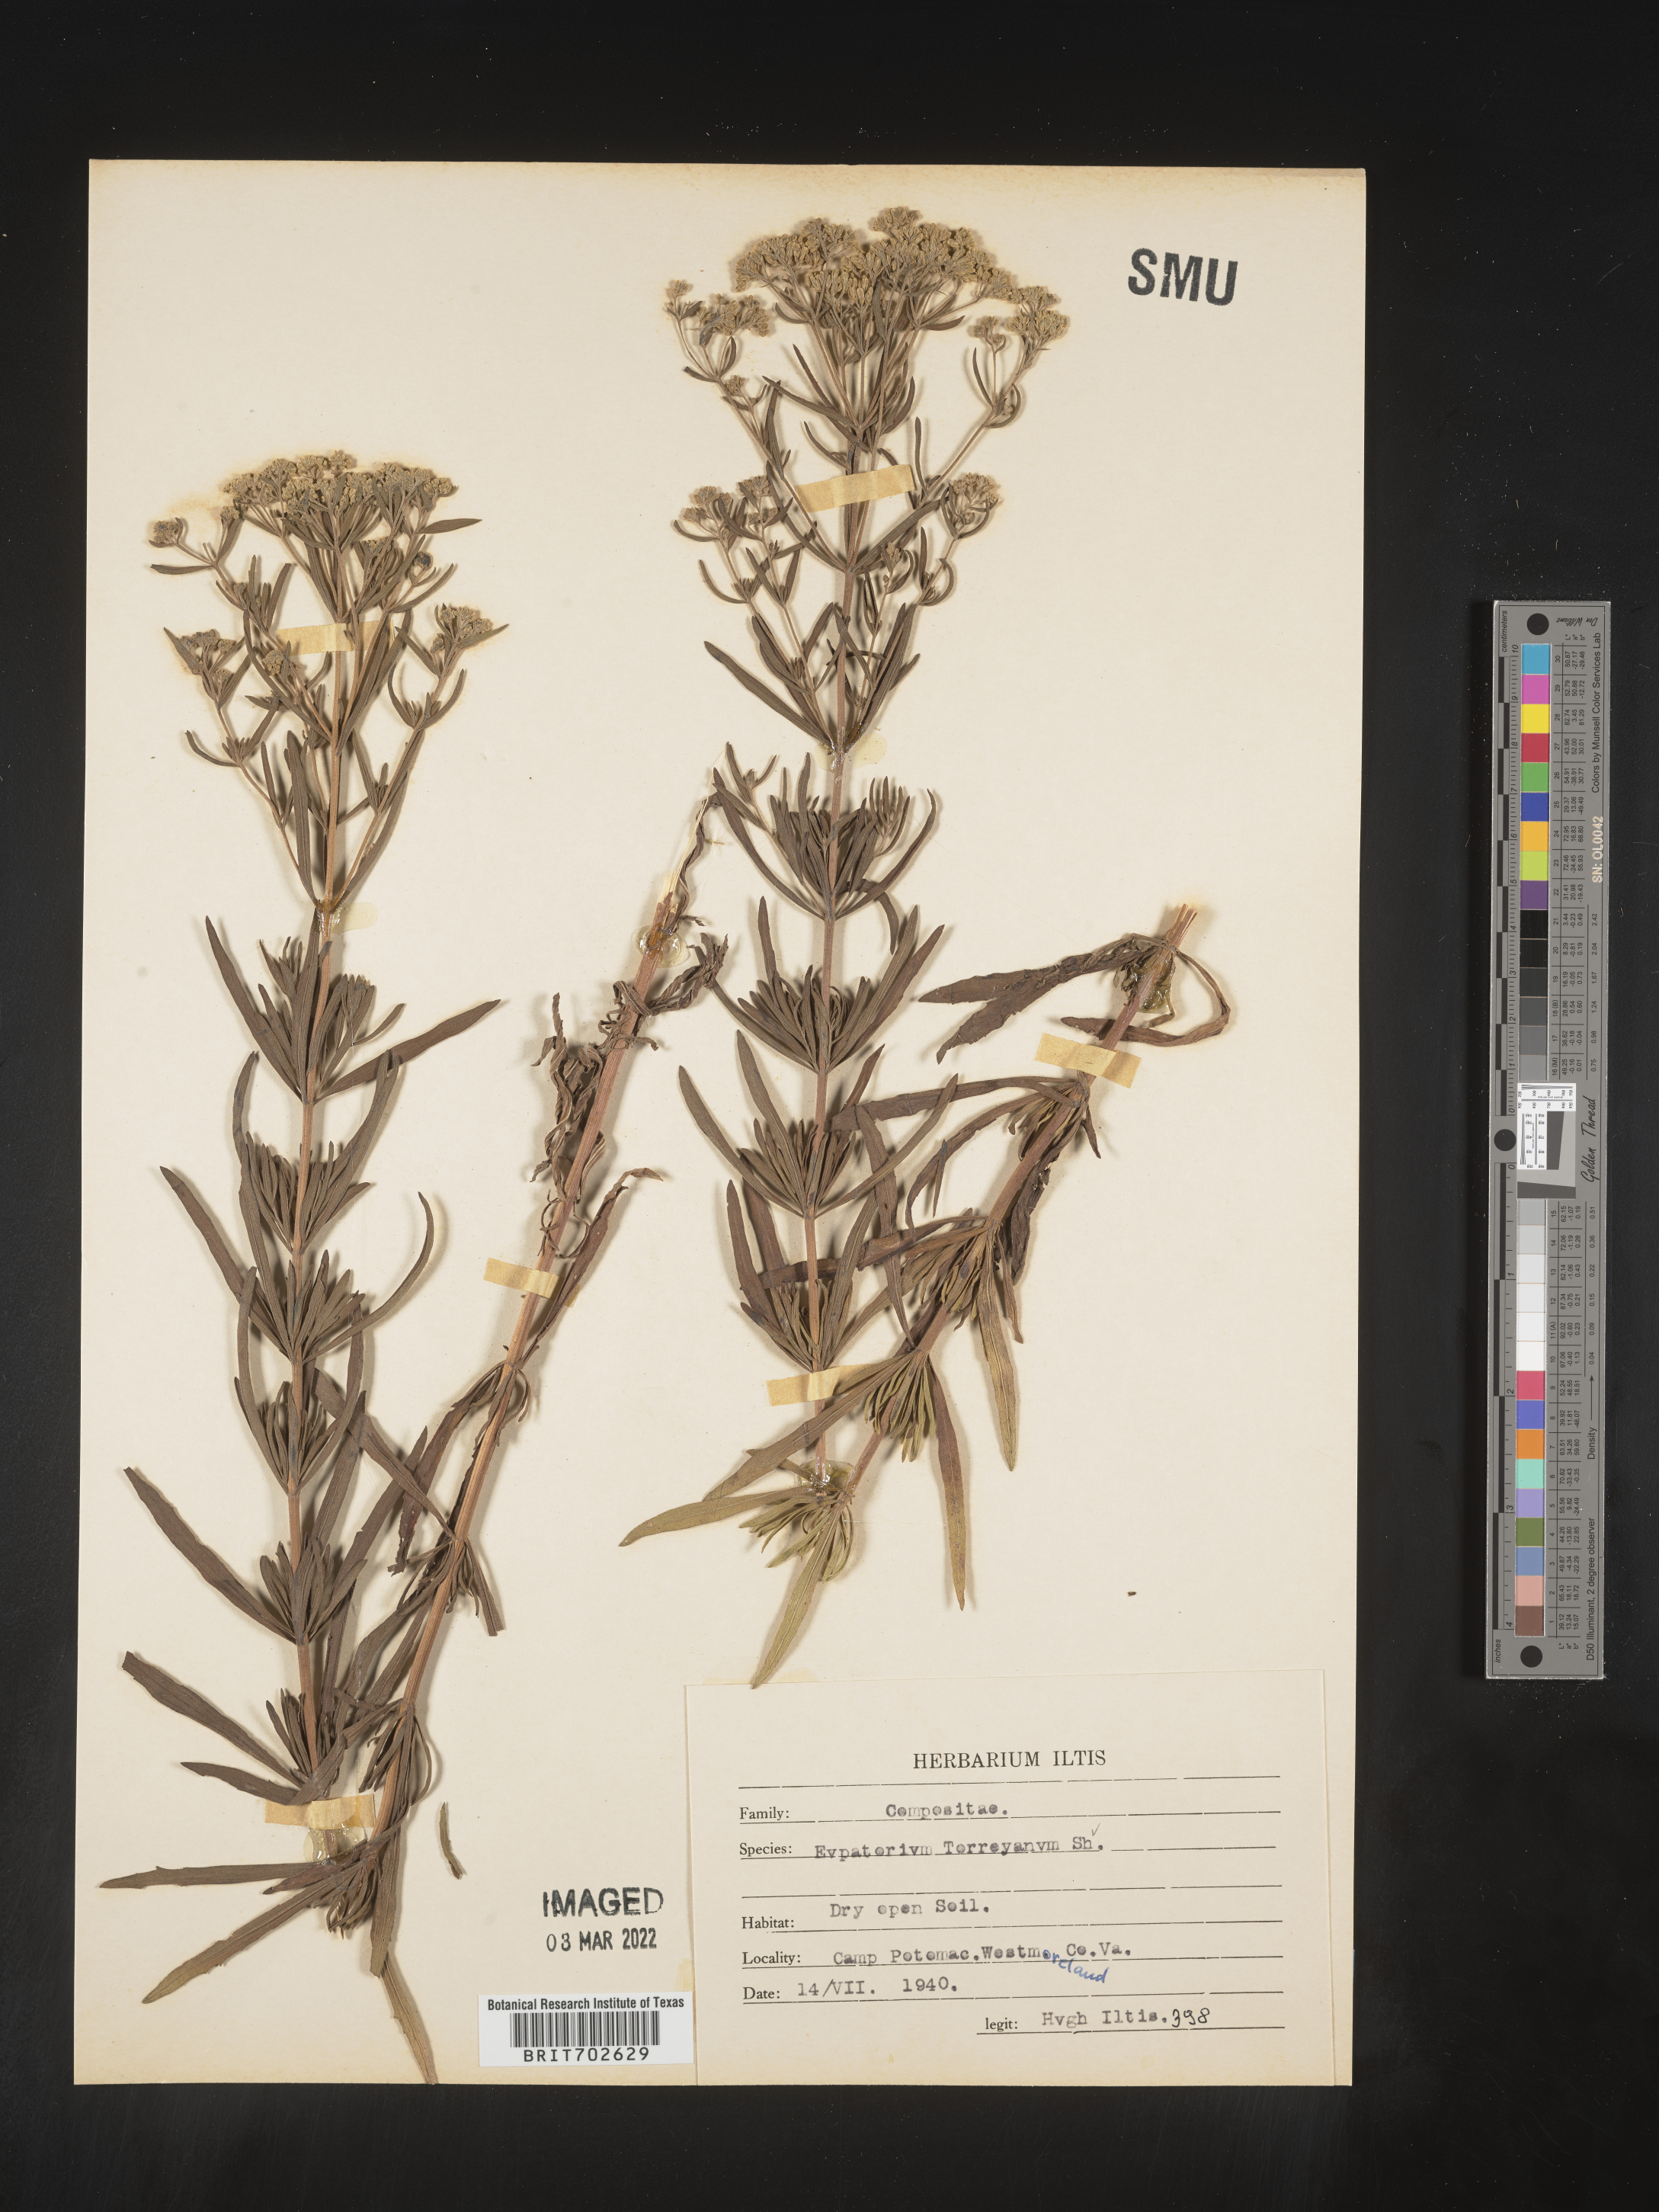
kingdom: Plantae
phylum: Tracheophyta
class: Magnoliopsida
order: Asterales
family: Asteraceae
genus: Eupatorium
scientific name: Eupatorium torreyanum
